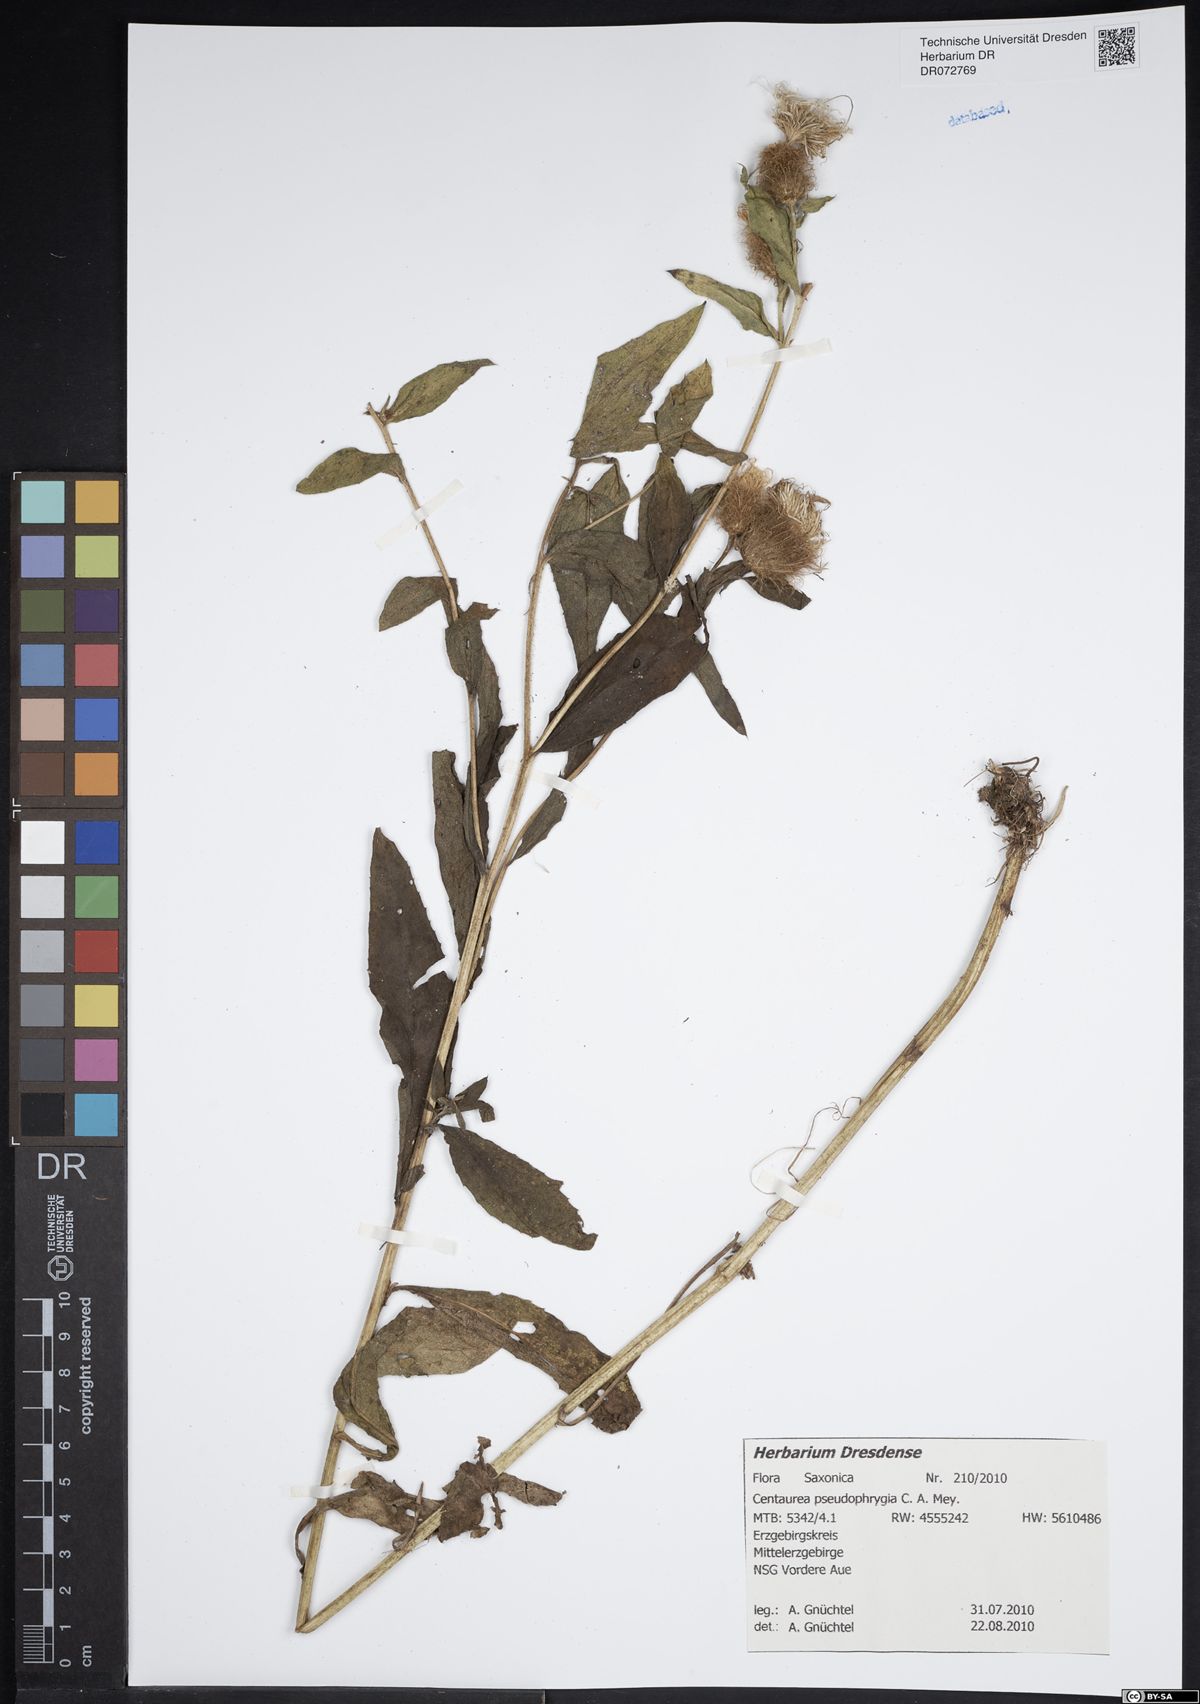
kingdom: Plantae
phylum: Tracheophyta
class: Magnoliopsida
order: Asterales
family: Asteraceae
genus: Centaurea
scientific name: Centaurea pseudophrygia
